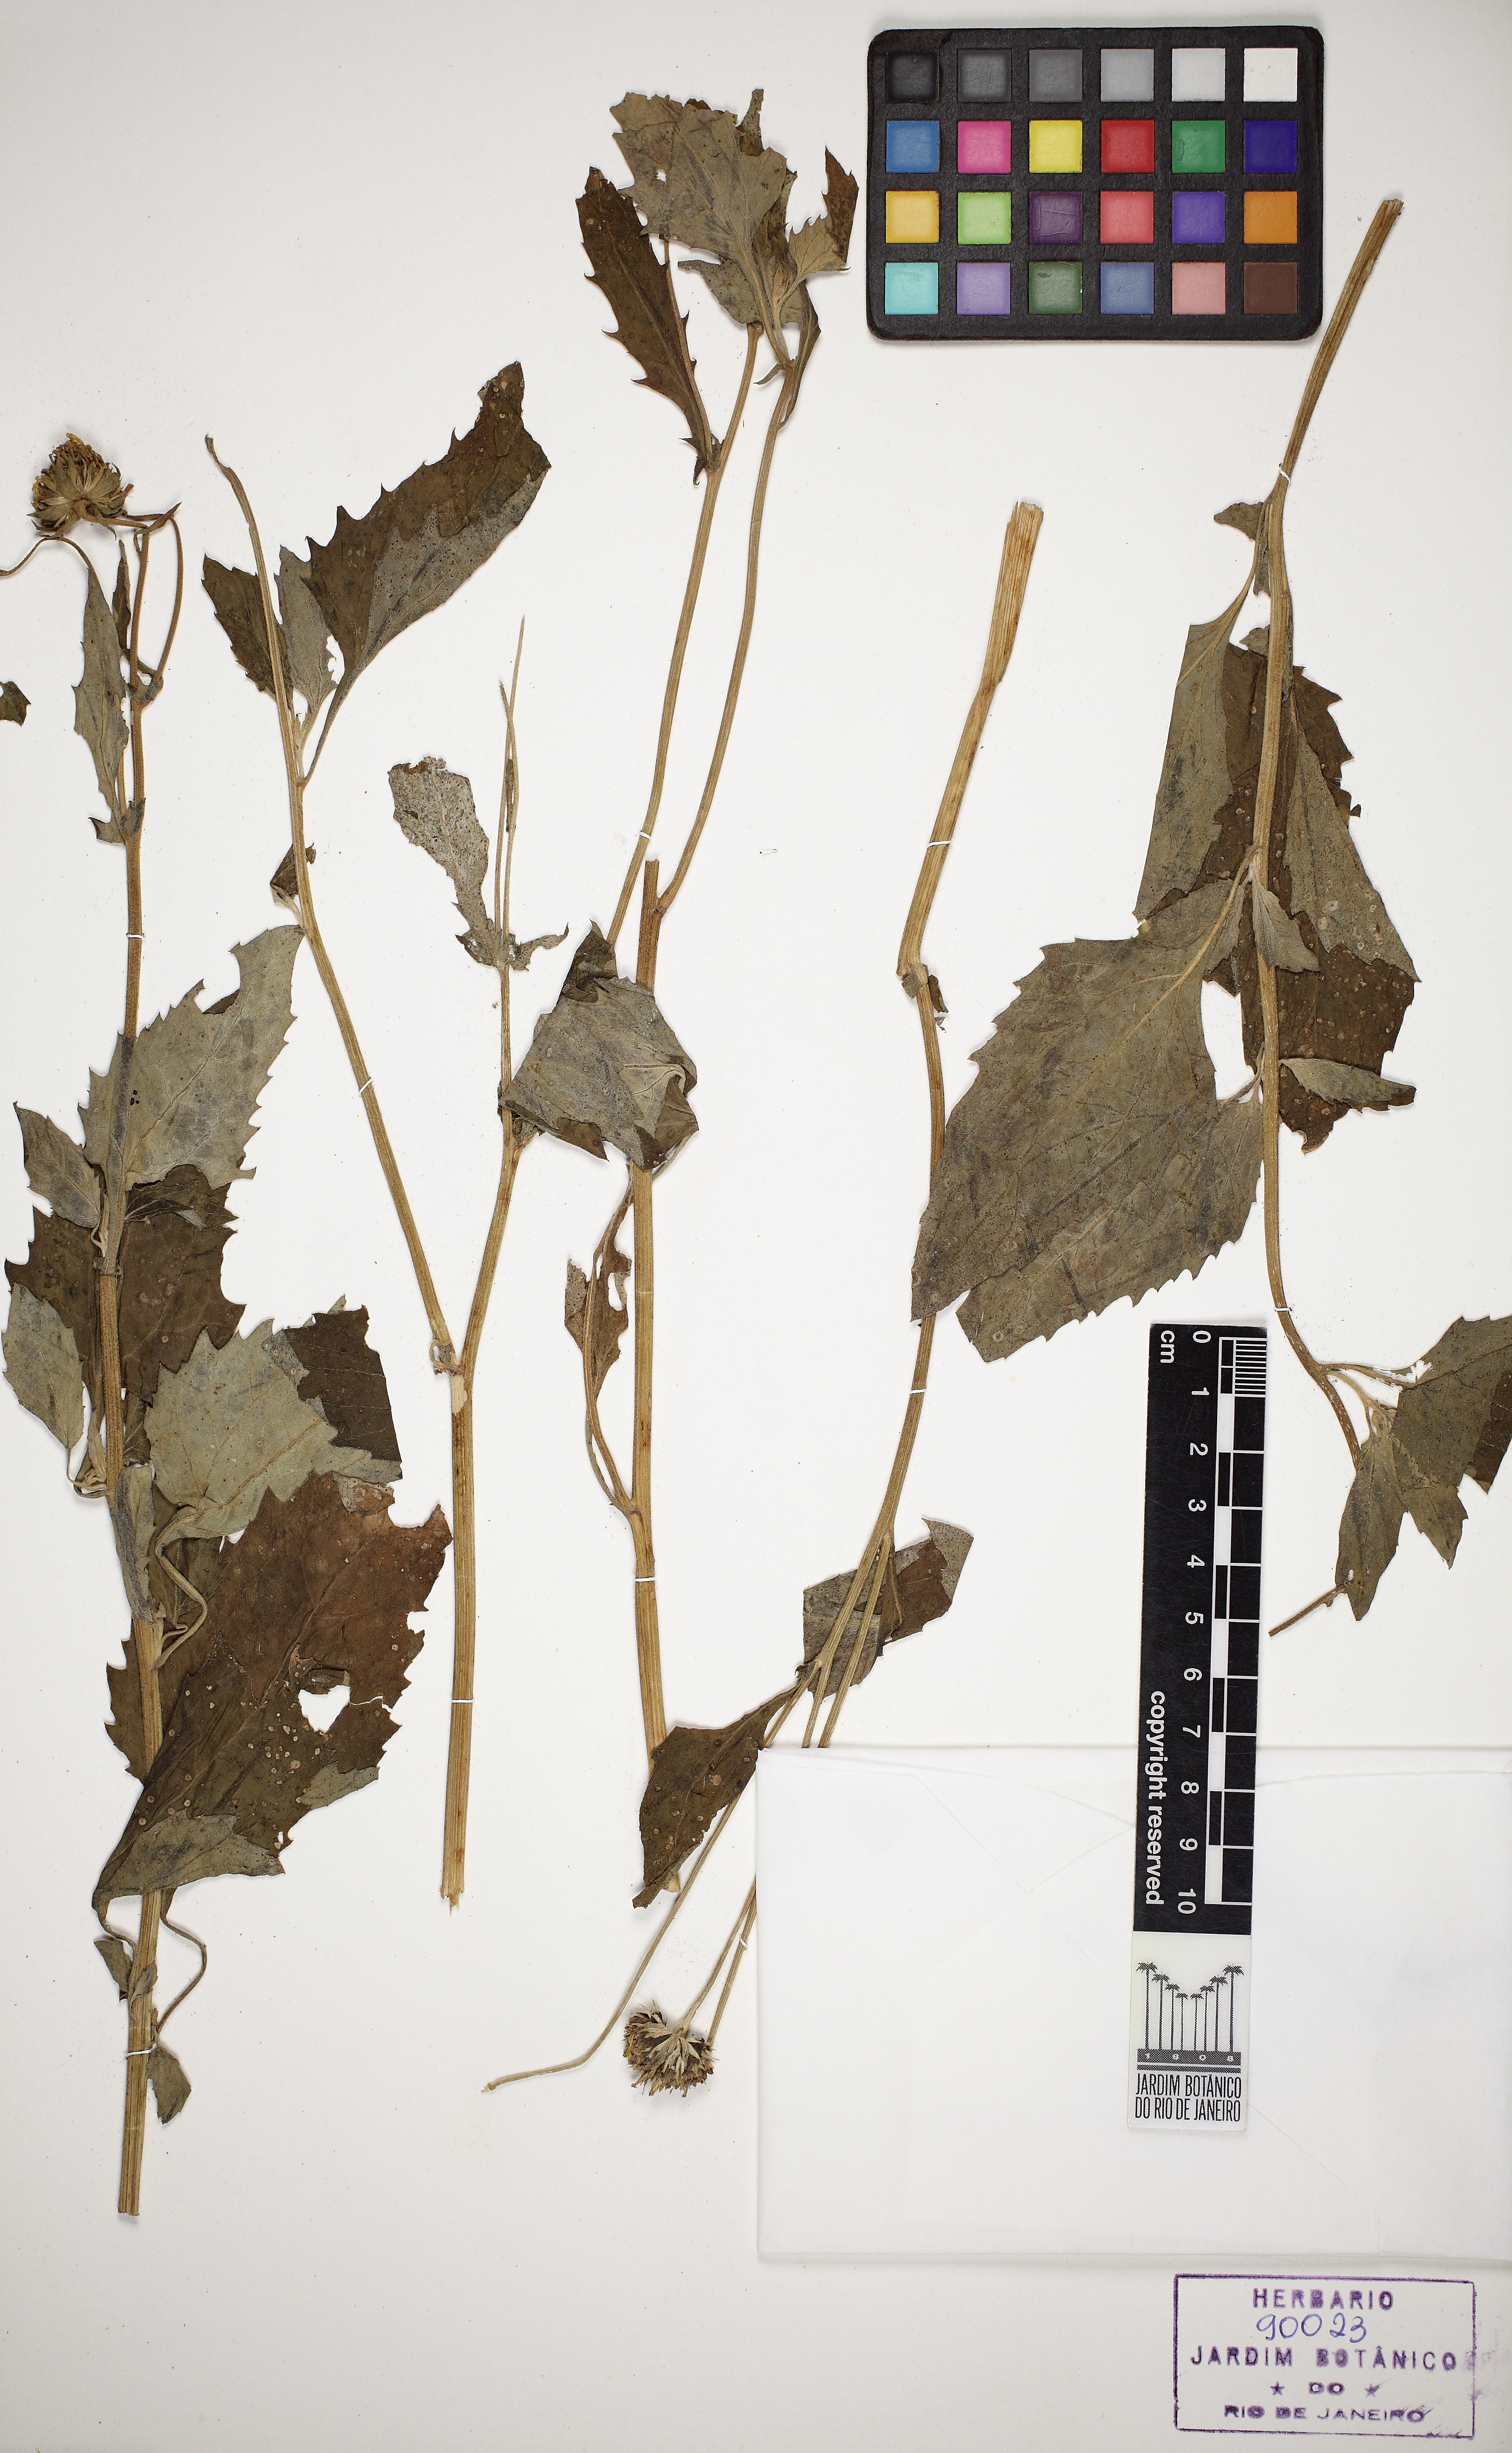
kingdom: Plantae
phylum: Tracheophyta
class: Magnoliopsida
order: Asterales
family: Asteraceae
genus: Verbesina
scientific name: Verbesina encelioides
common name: Golden crownbeard
